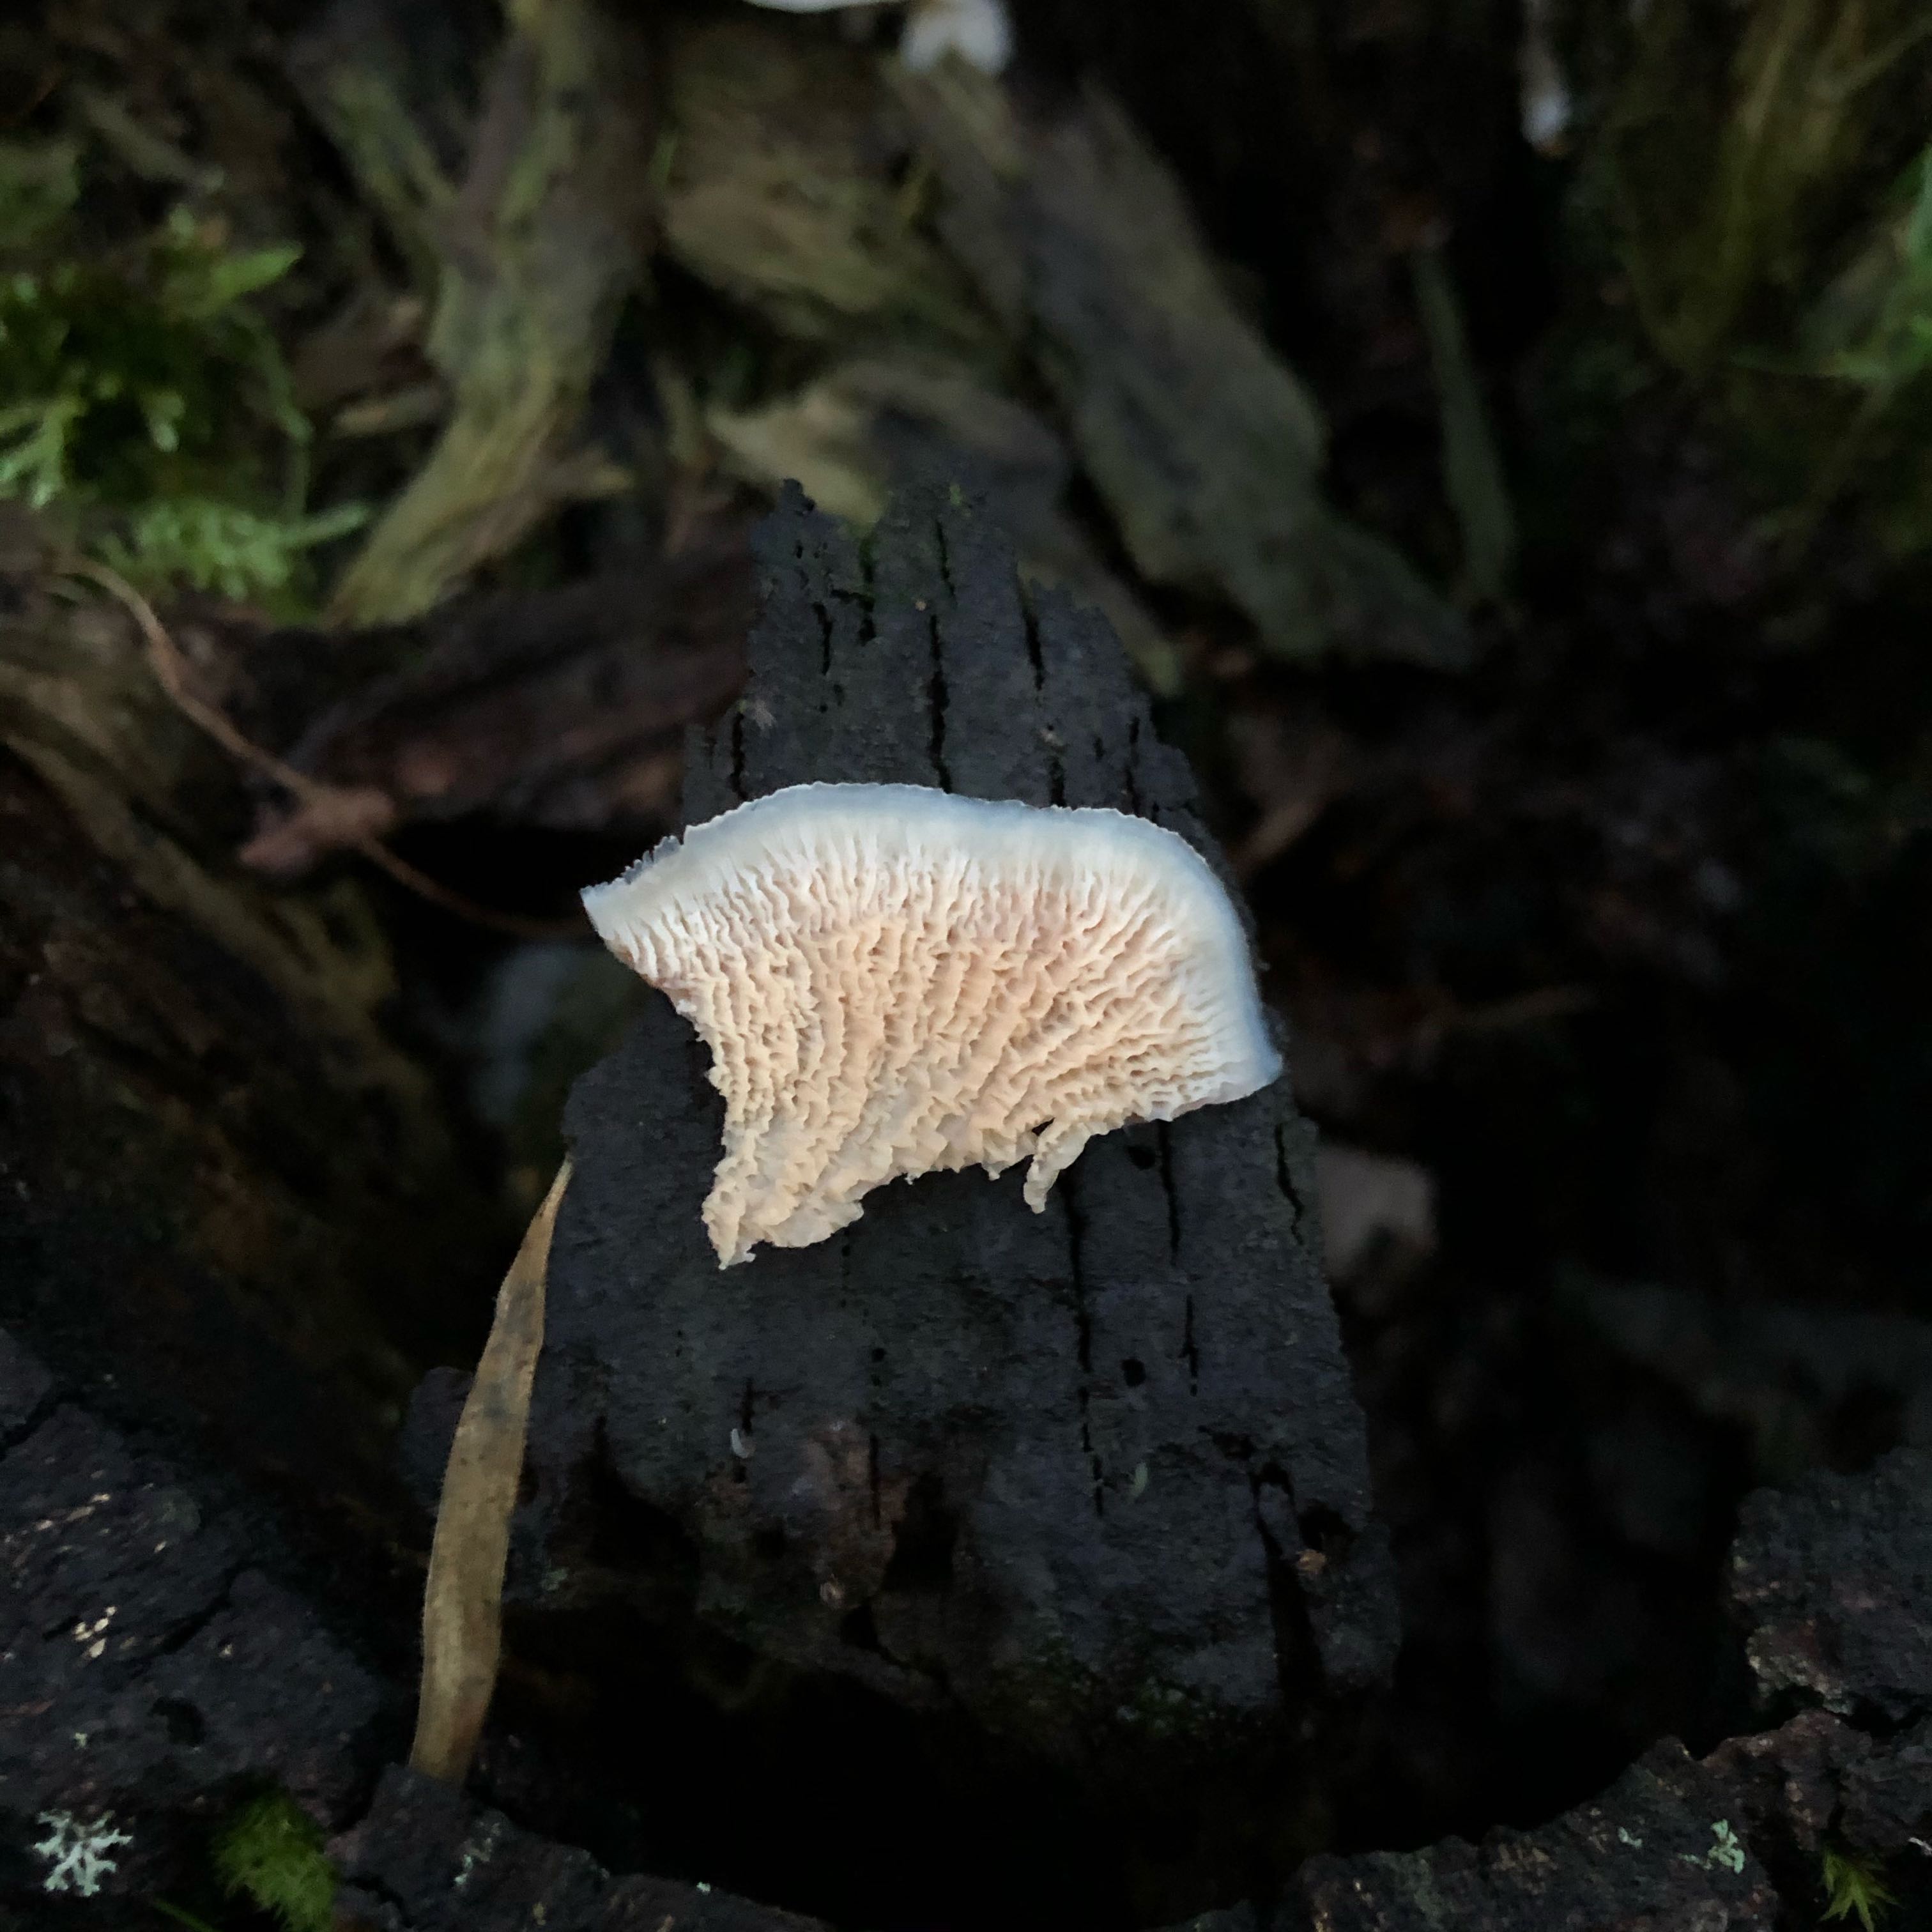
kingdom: Fungi
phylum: Basidiomycota
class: Agaricomycetes
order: Polyporales
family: Meruliaceae
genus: Phlebia
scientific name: Phlebia tremellosa
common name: bævrende åresvamp
